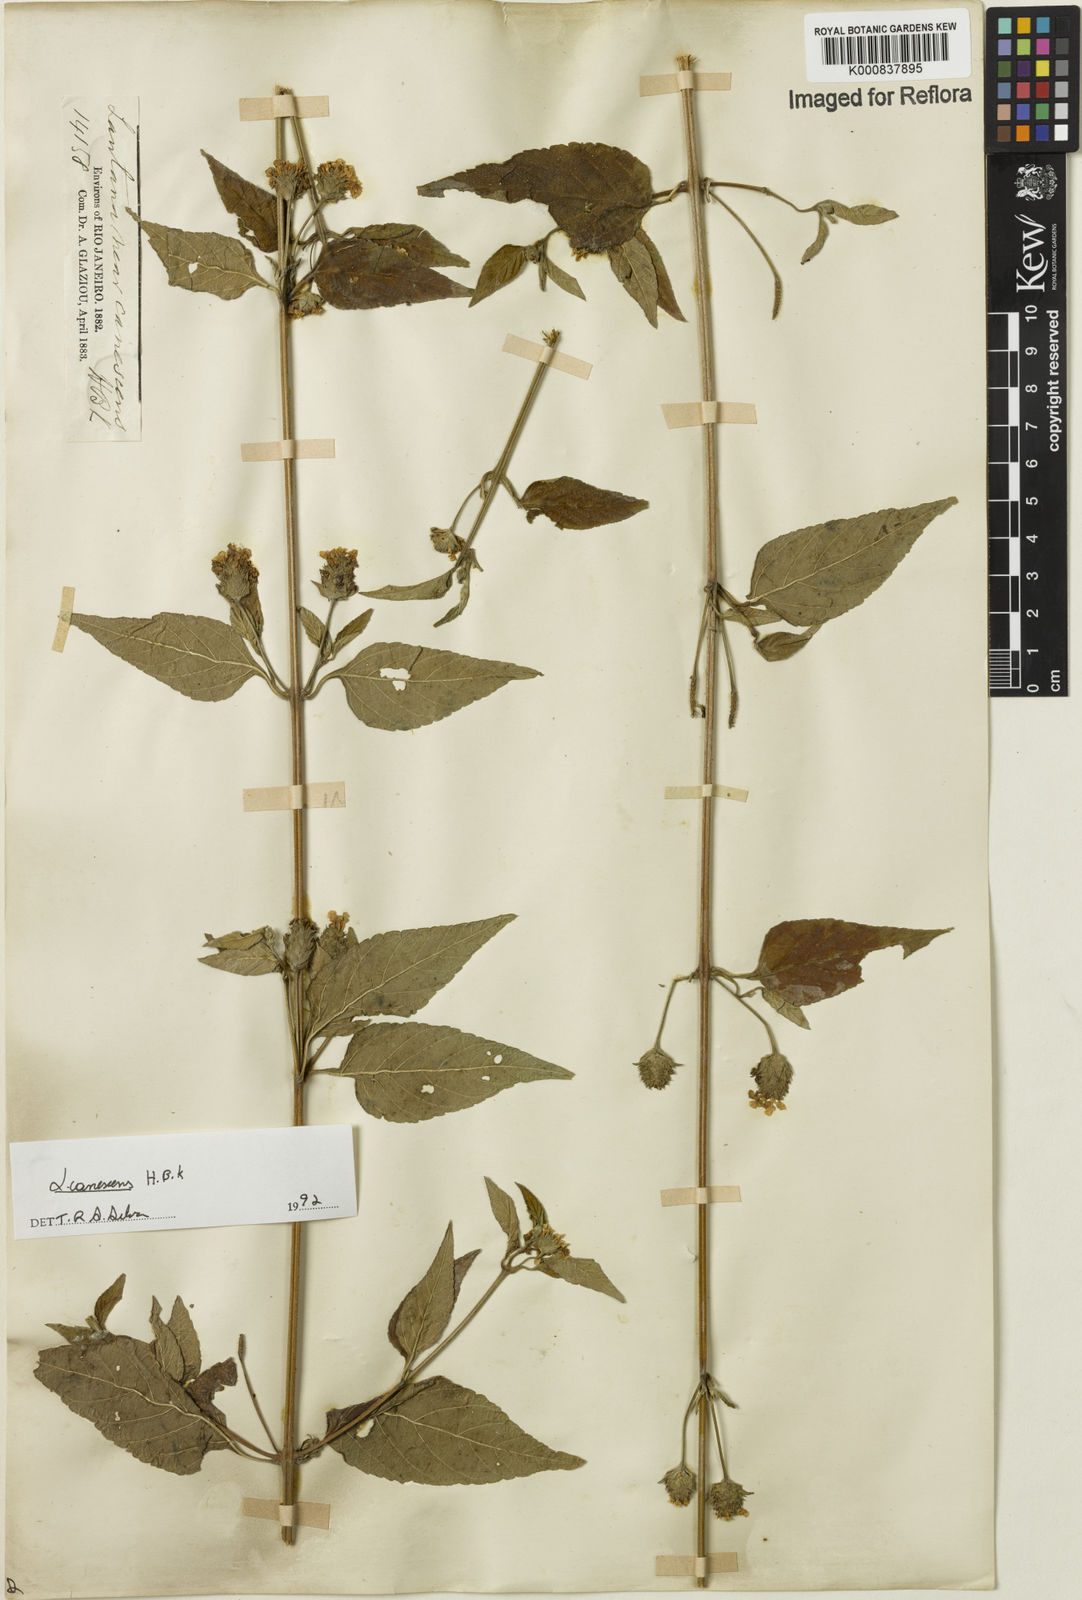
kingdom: Plantae
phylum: Tracheophyta
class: Magnoliopsida
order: Lamiales
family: Verbenaceae
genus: Lantana
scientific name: Lantana canescens
